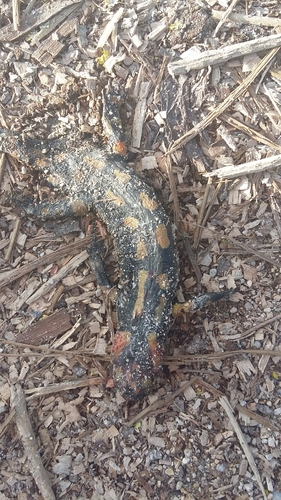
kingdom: Animalia
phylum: Chordata
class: Amphibia
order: Caudata
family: Salamandridae
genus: Salamandra
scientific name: Salamandra salamandra
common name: Fire salamander
